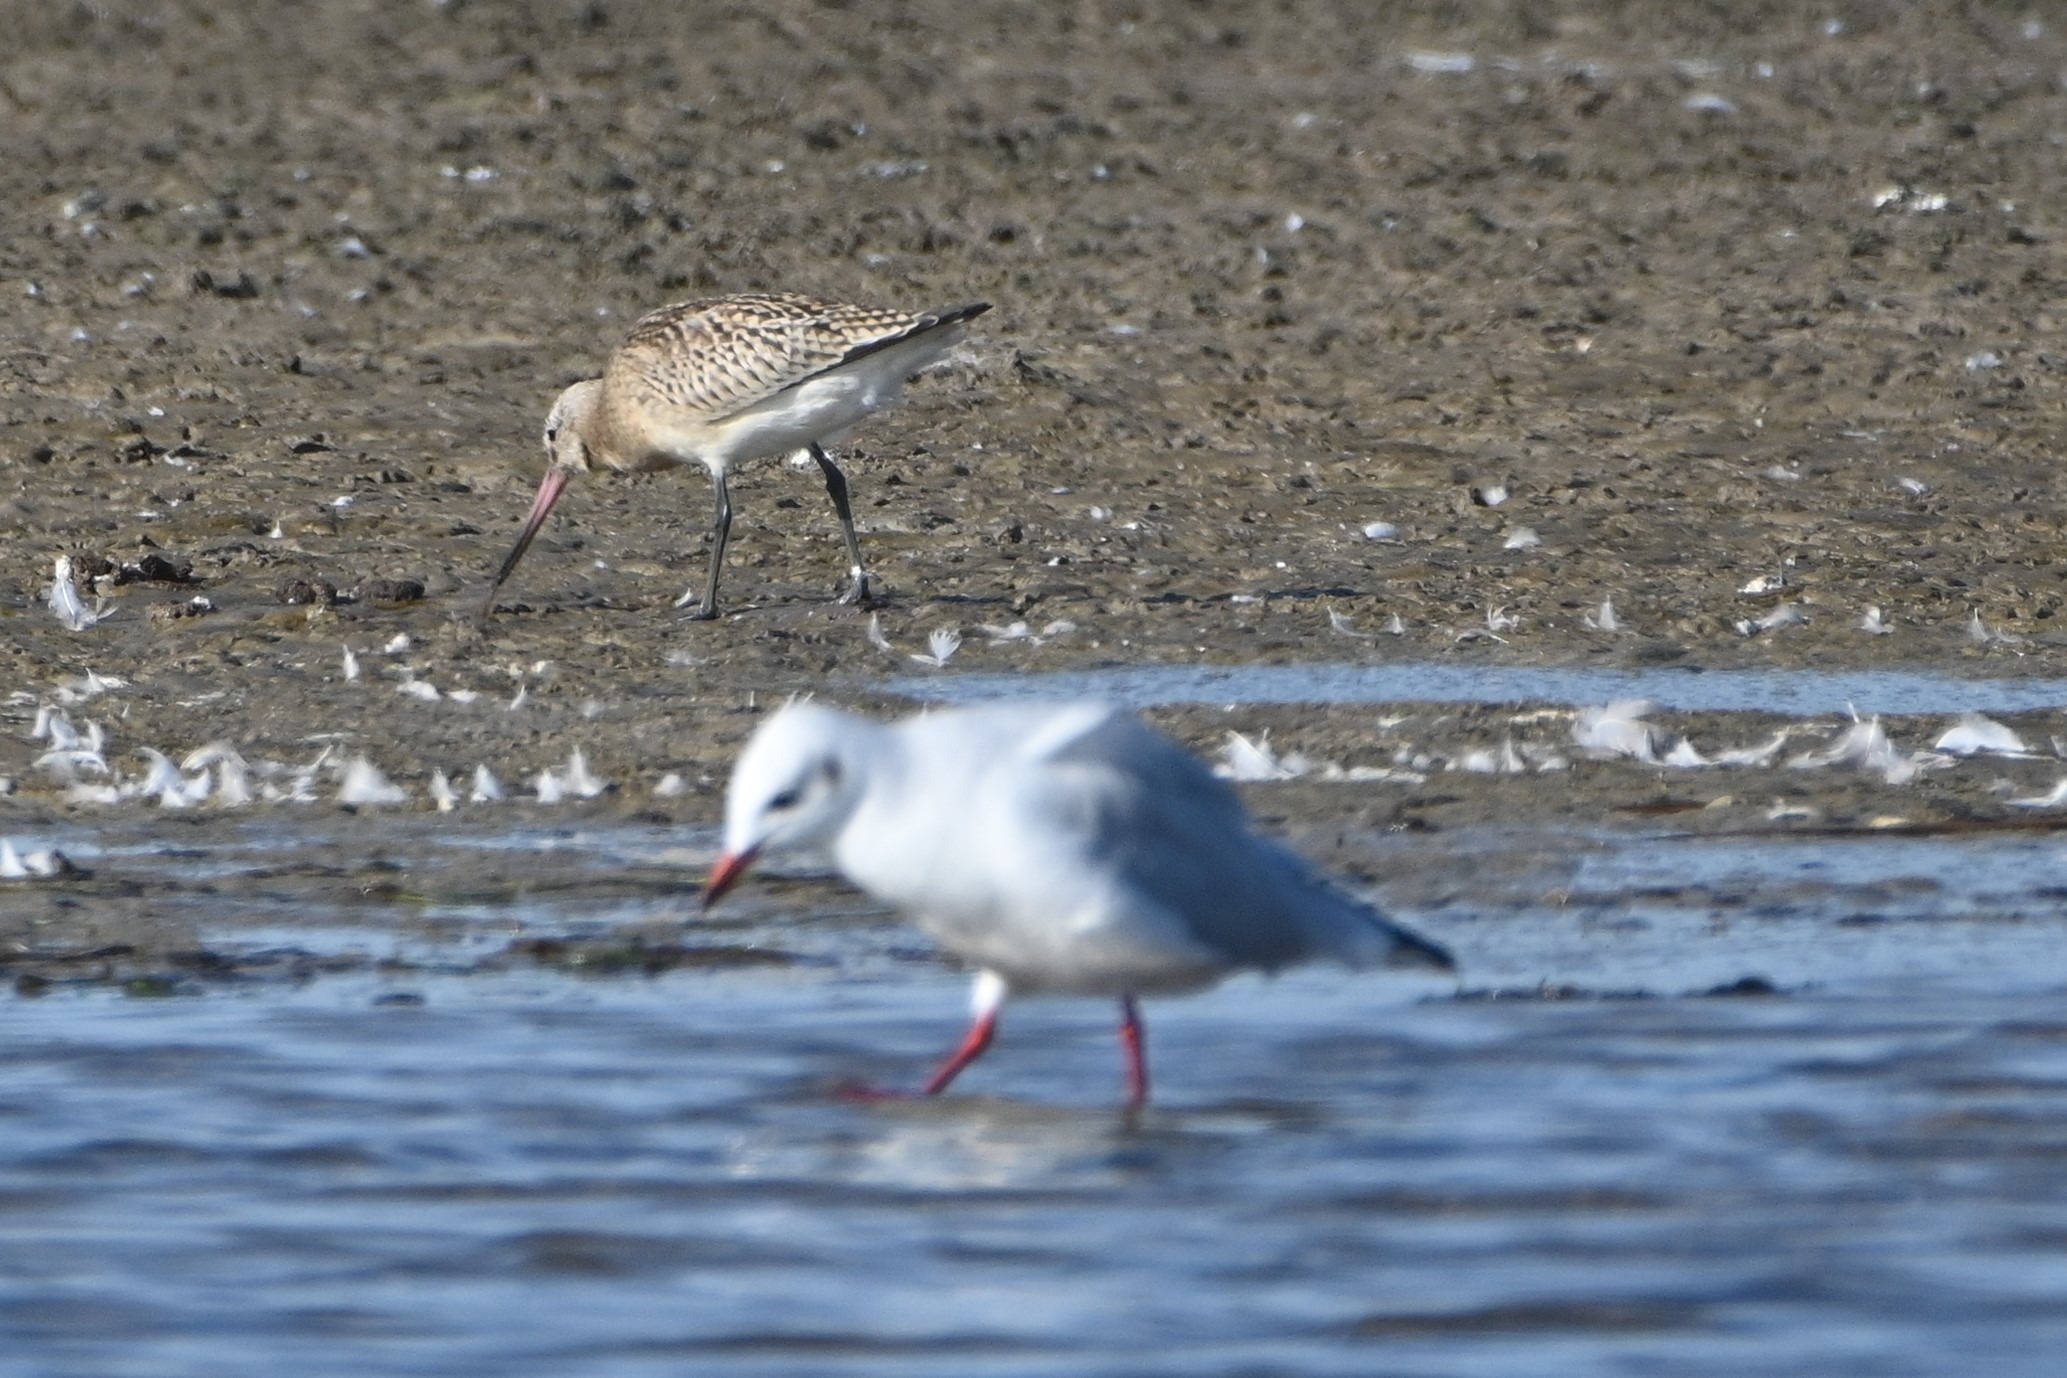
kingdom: Animalia
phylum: Chordata
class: Aves
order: Charadriiformes
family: Scolopacidae
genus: Limosa
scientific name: Limosa lapponica
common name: Lille kobbersneppe
